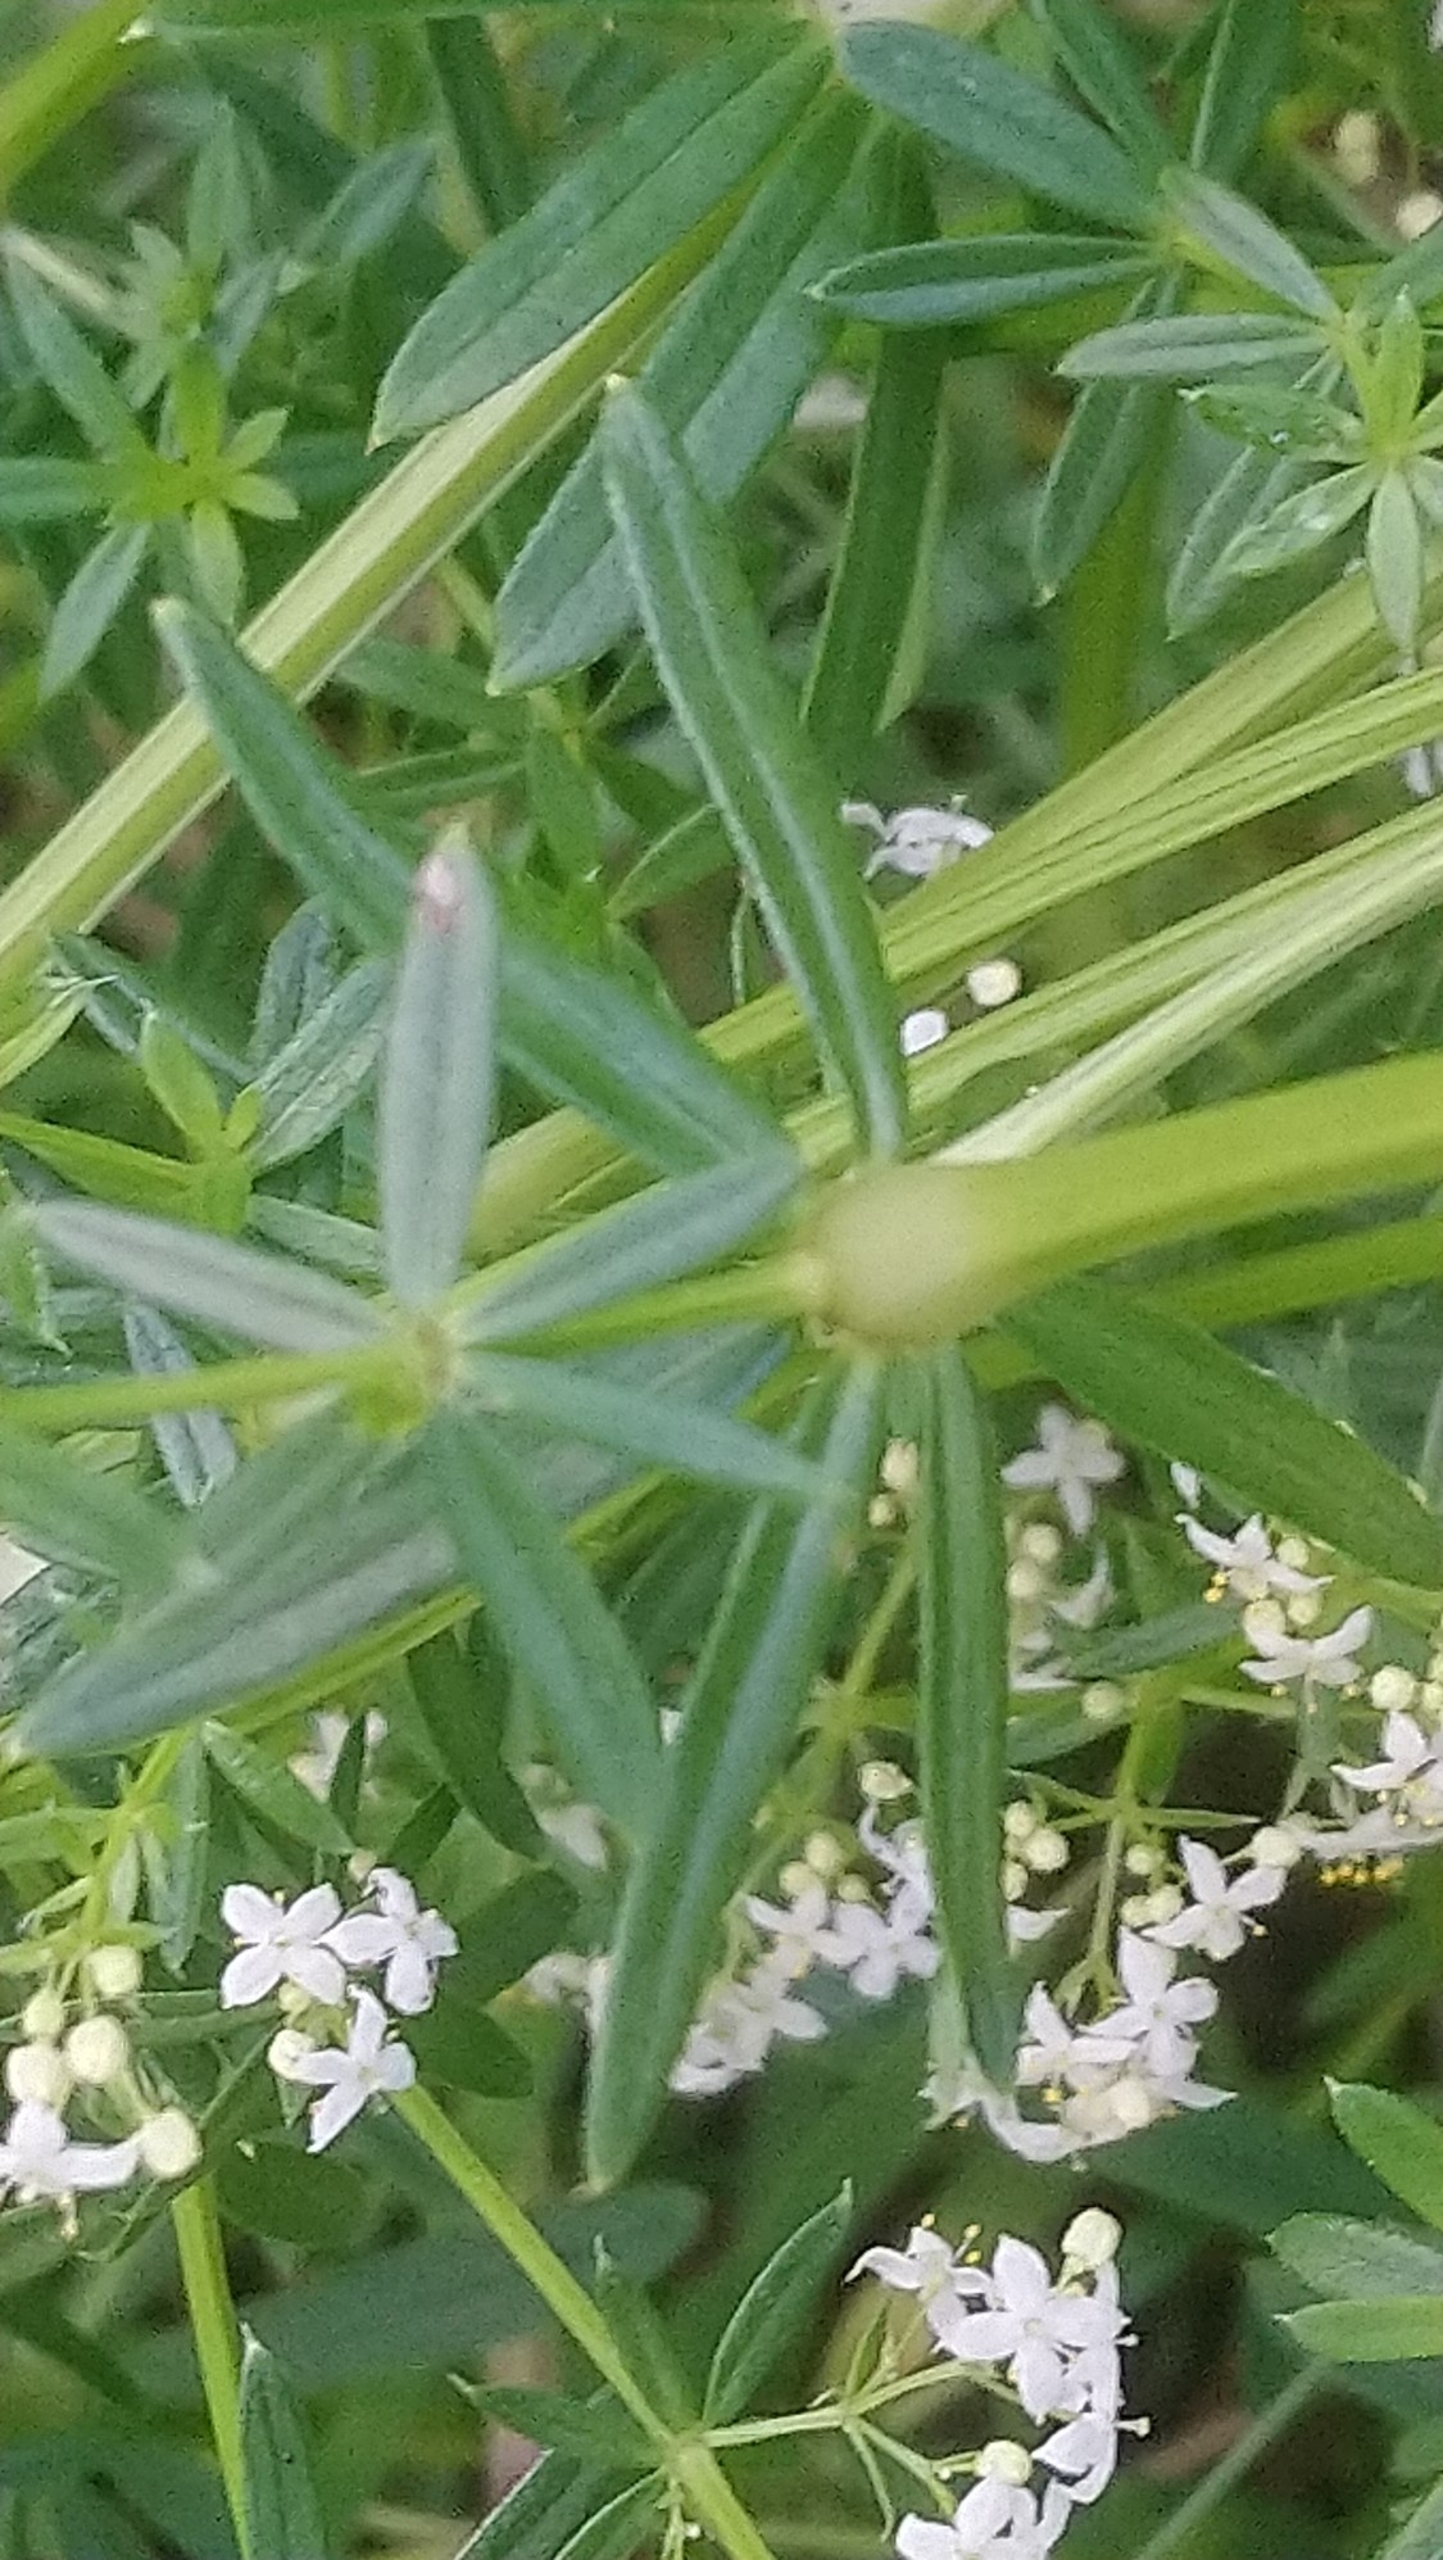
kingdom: Plantae
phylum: Tracheophyta
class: Magnoliopsida
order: Gentianales
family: Rubiaceae
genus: Galium
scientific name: Galium mollugo
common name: Hvid snerre
